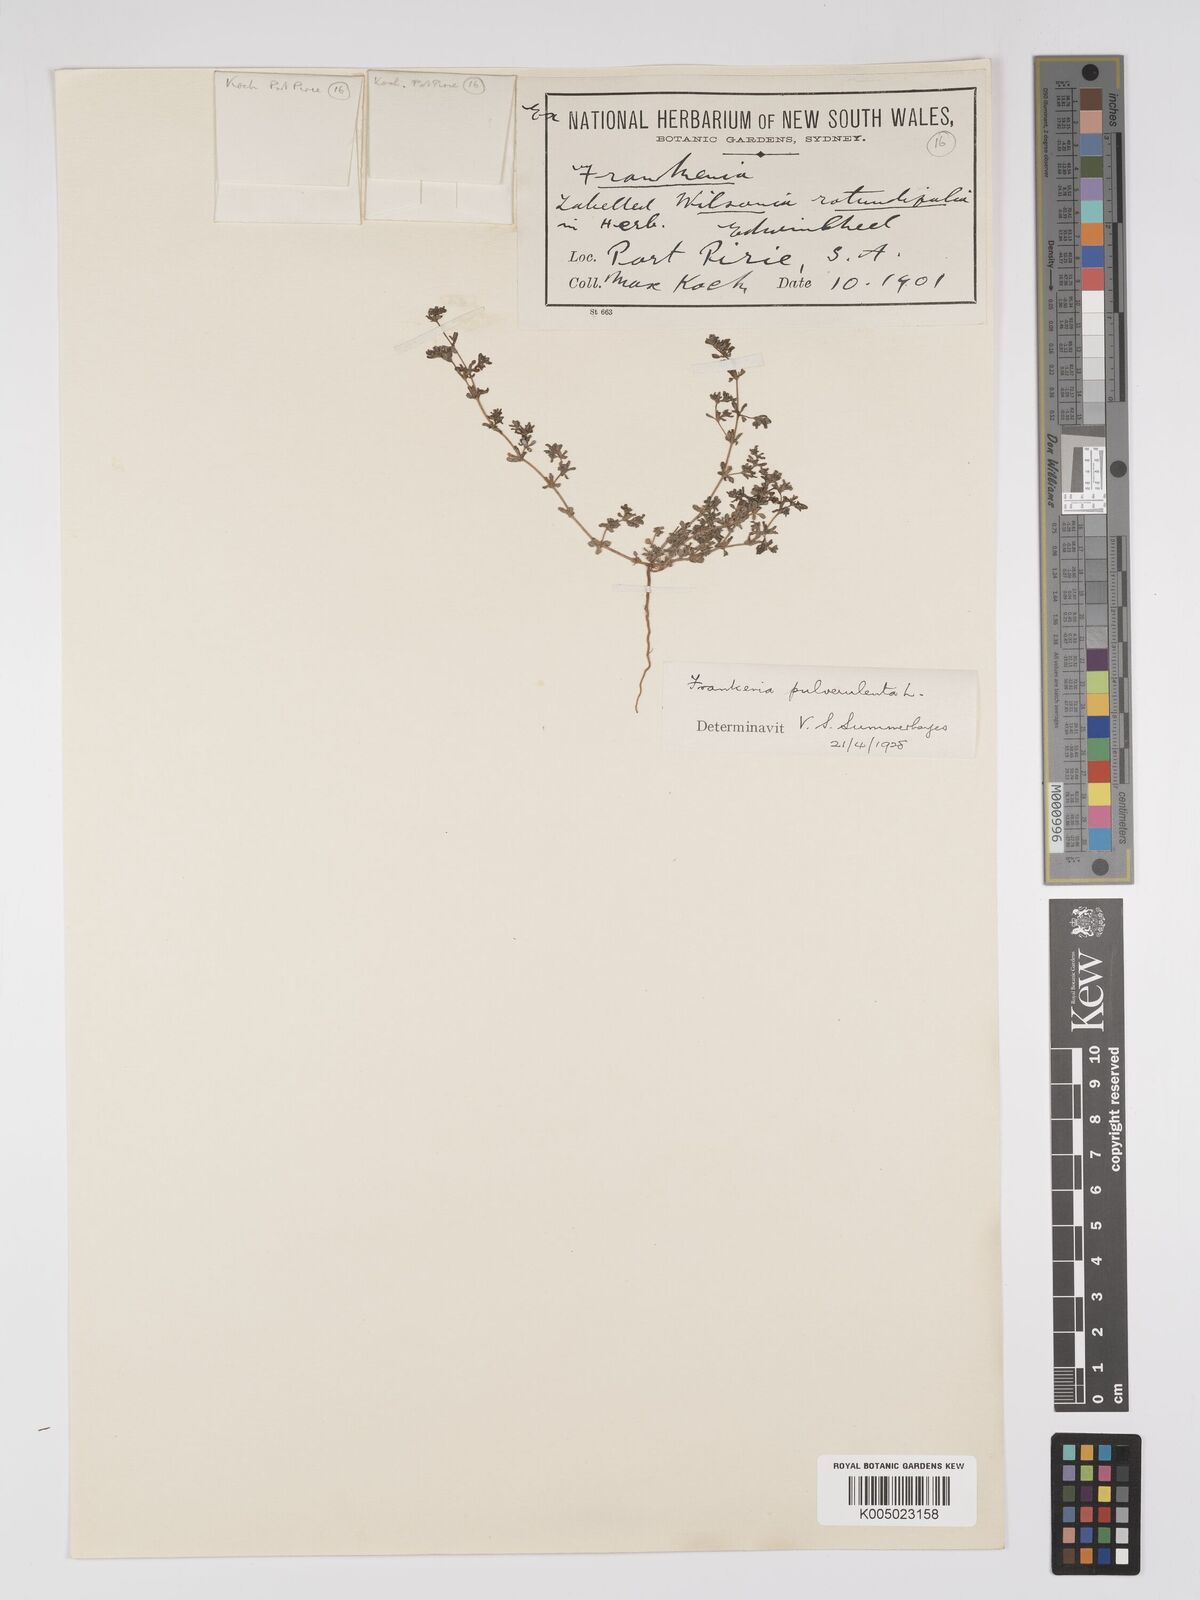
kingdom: Plantae
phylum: Tracheophyta
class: Magnoliopsida
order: Caryophyllales
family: Frankeniaceae
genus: Frankenia
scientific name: Frankenia pulverulenta
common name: European seaheath
